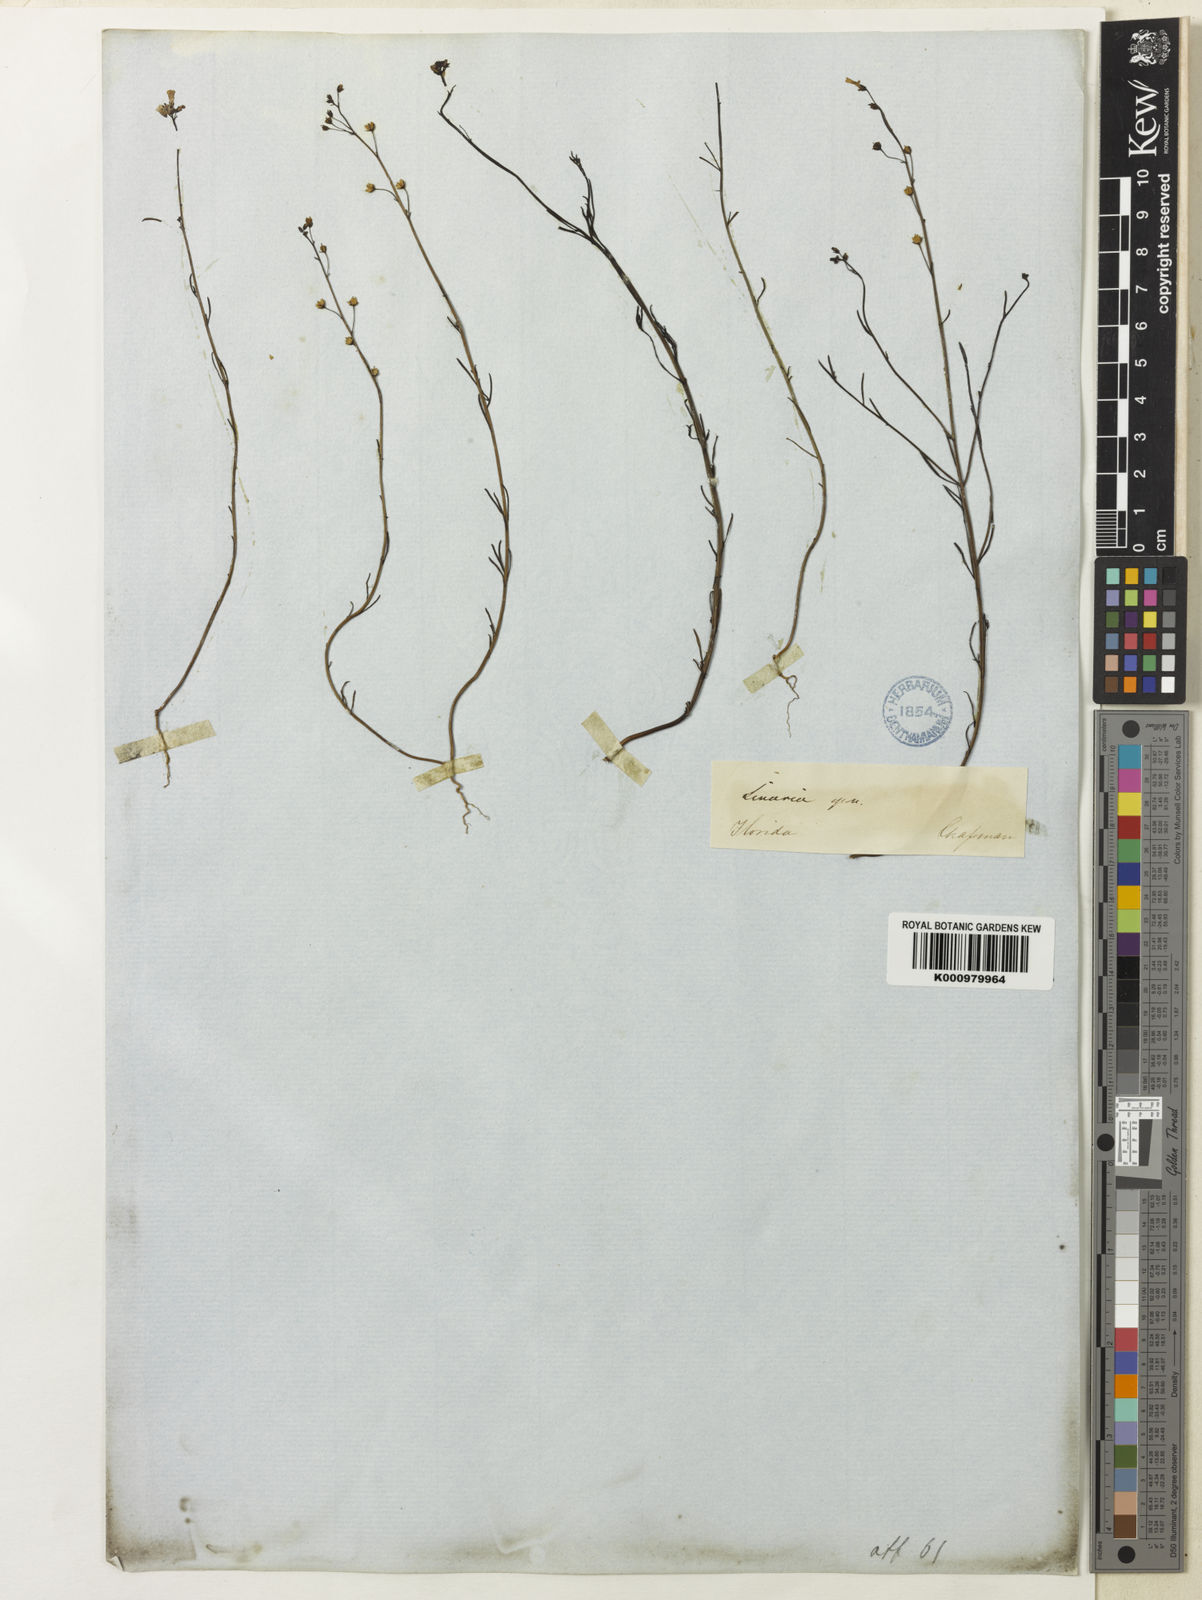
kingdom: Plantae
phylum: Tracheophyta
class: Magnoliopsida
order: Lamiales
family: Plantaginaceae
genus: Nuttallanthus
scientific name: Nuttallanthus floridanus
